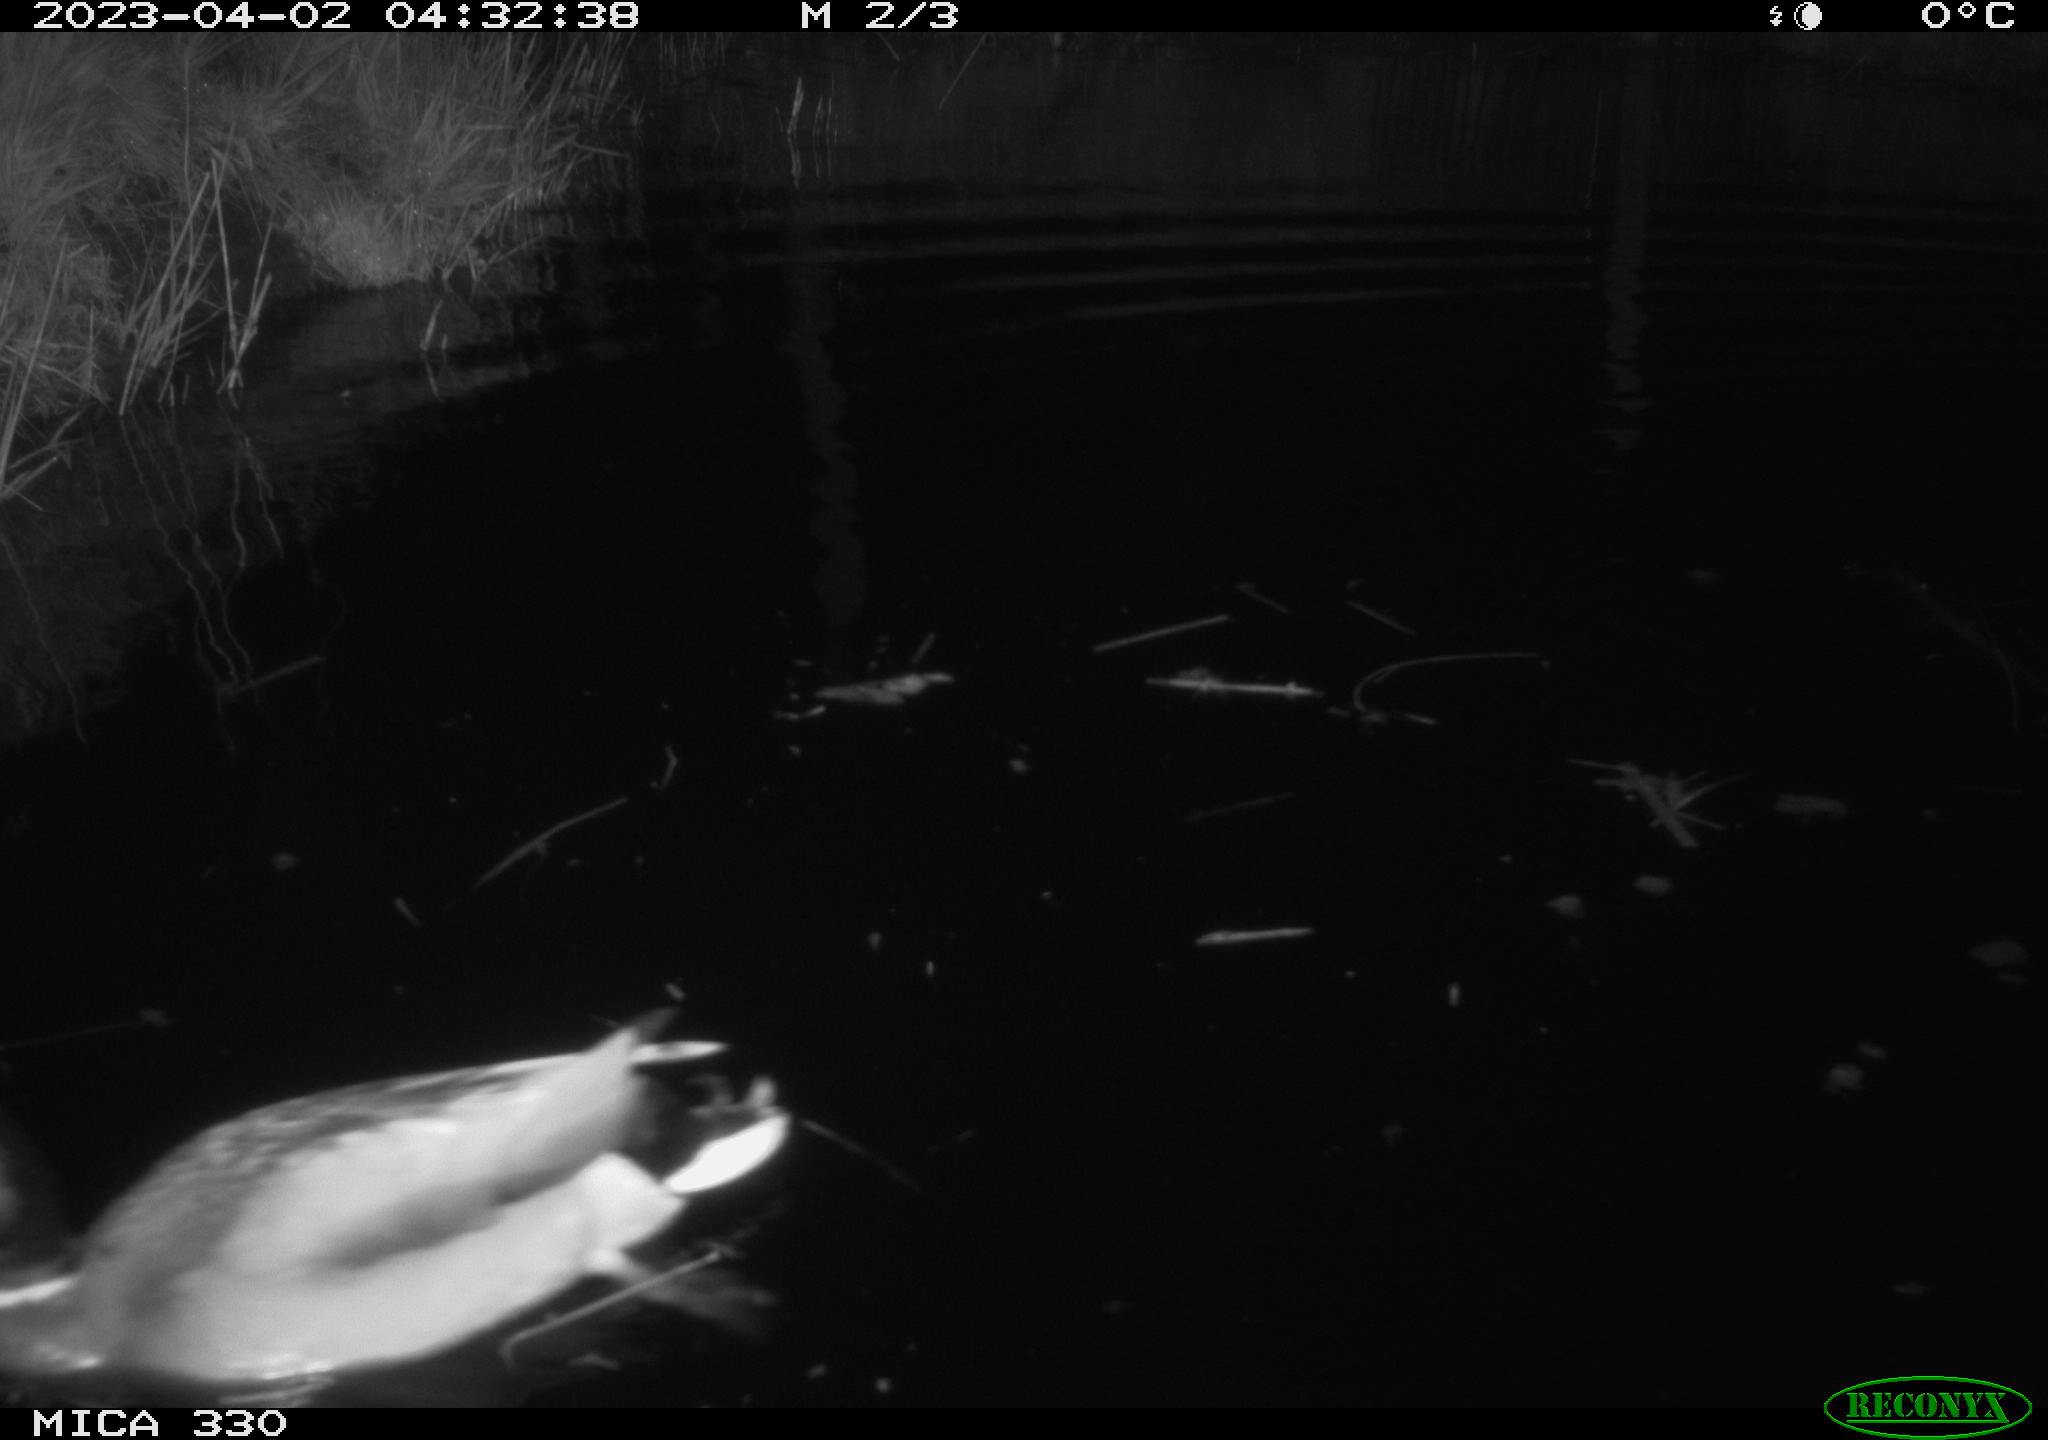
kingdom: Animalia
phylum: Chordata
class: Aves
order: Anseriformes
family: Anatidae
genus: Anas
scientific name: Anas
